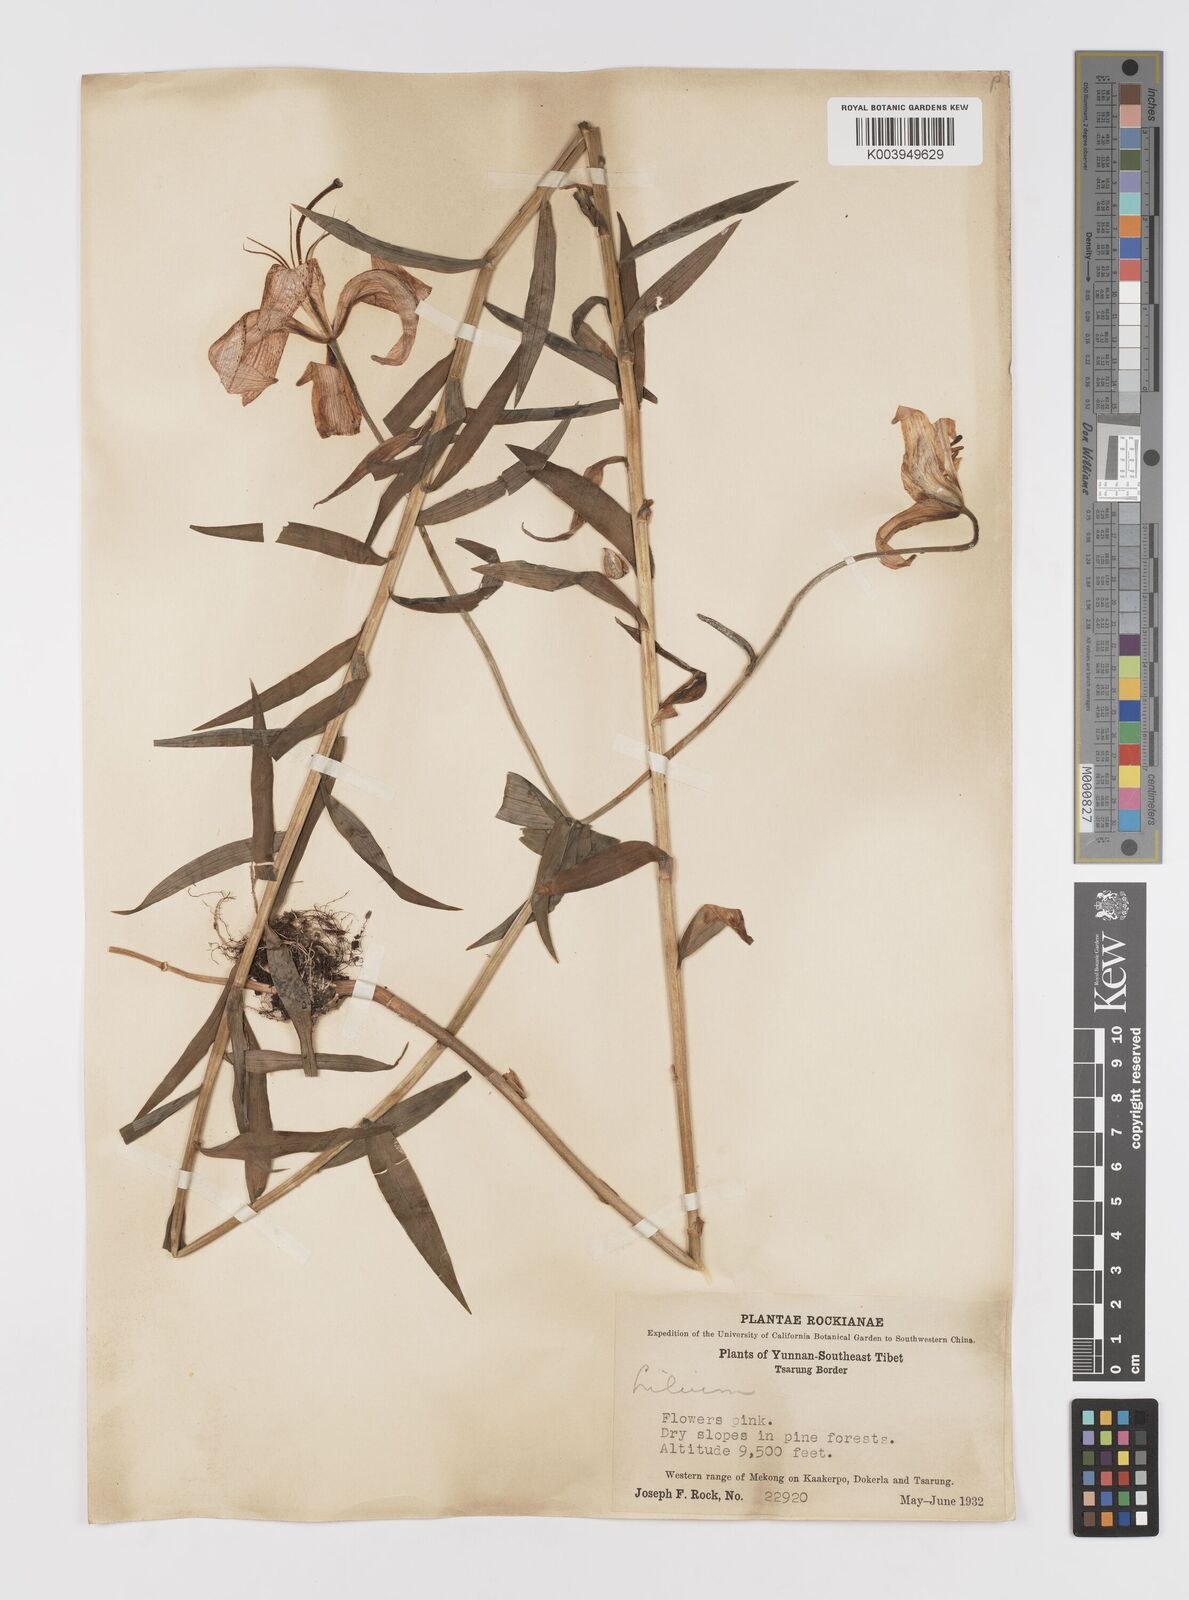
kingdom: Plantae
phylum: Tracheophyta
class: Liliopsida
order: Liliales
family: Liliaceae
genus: Lilium
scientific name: Lilium
